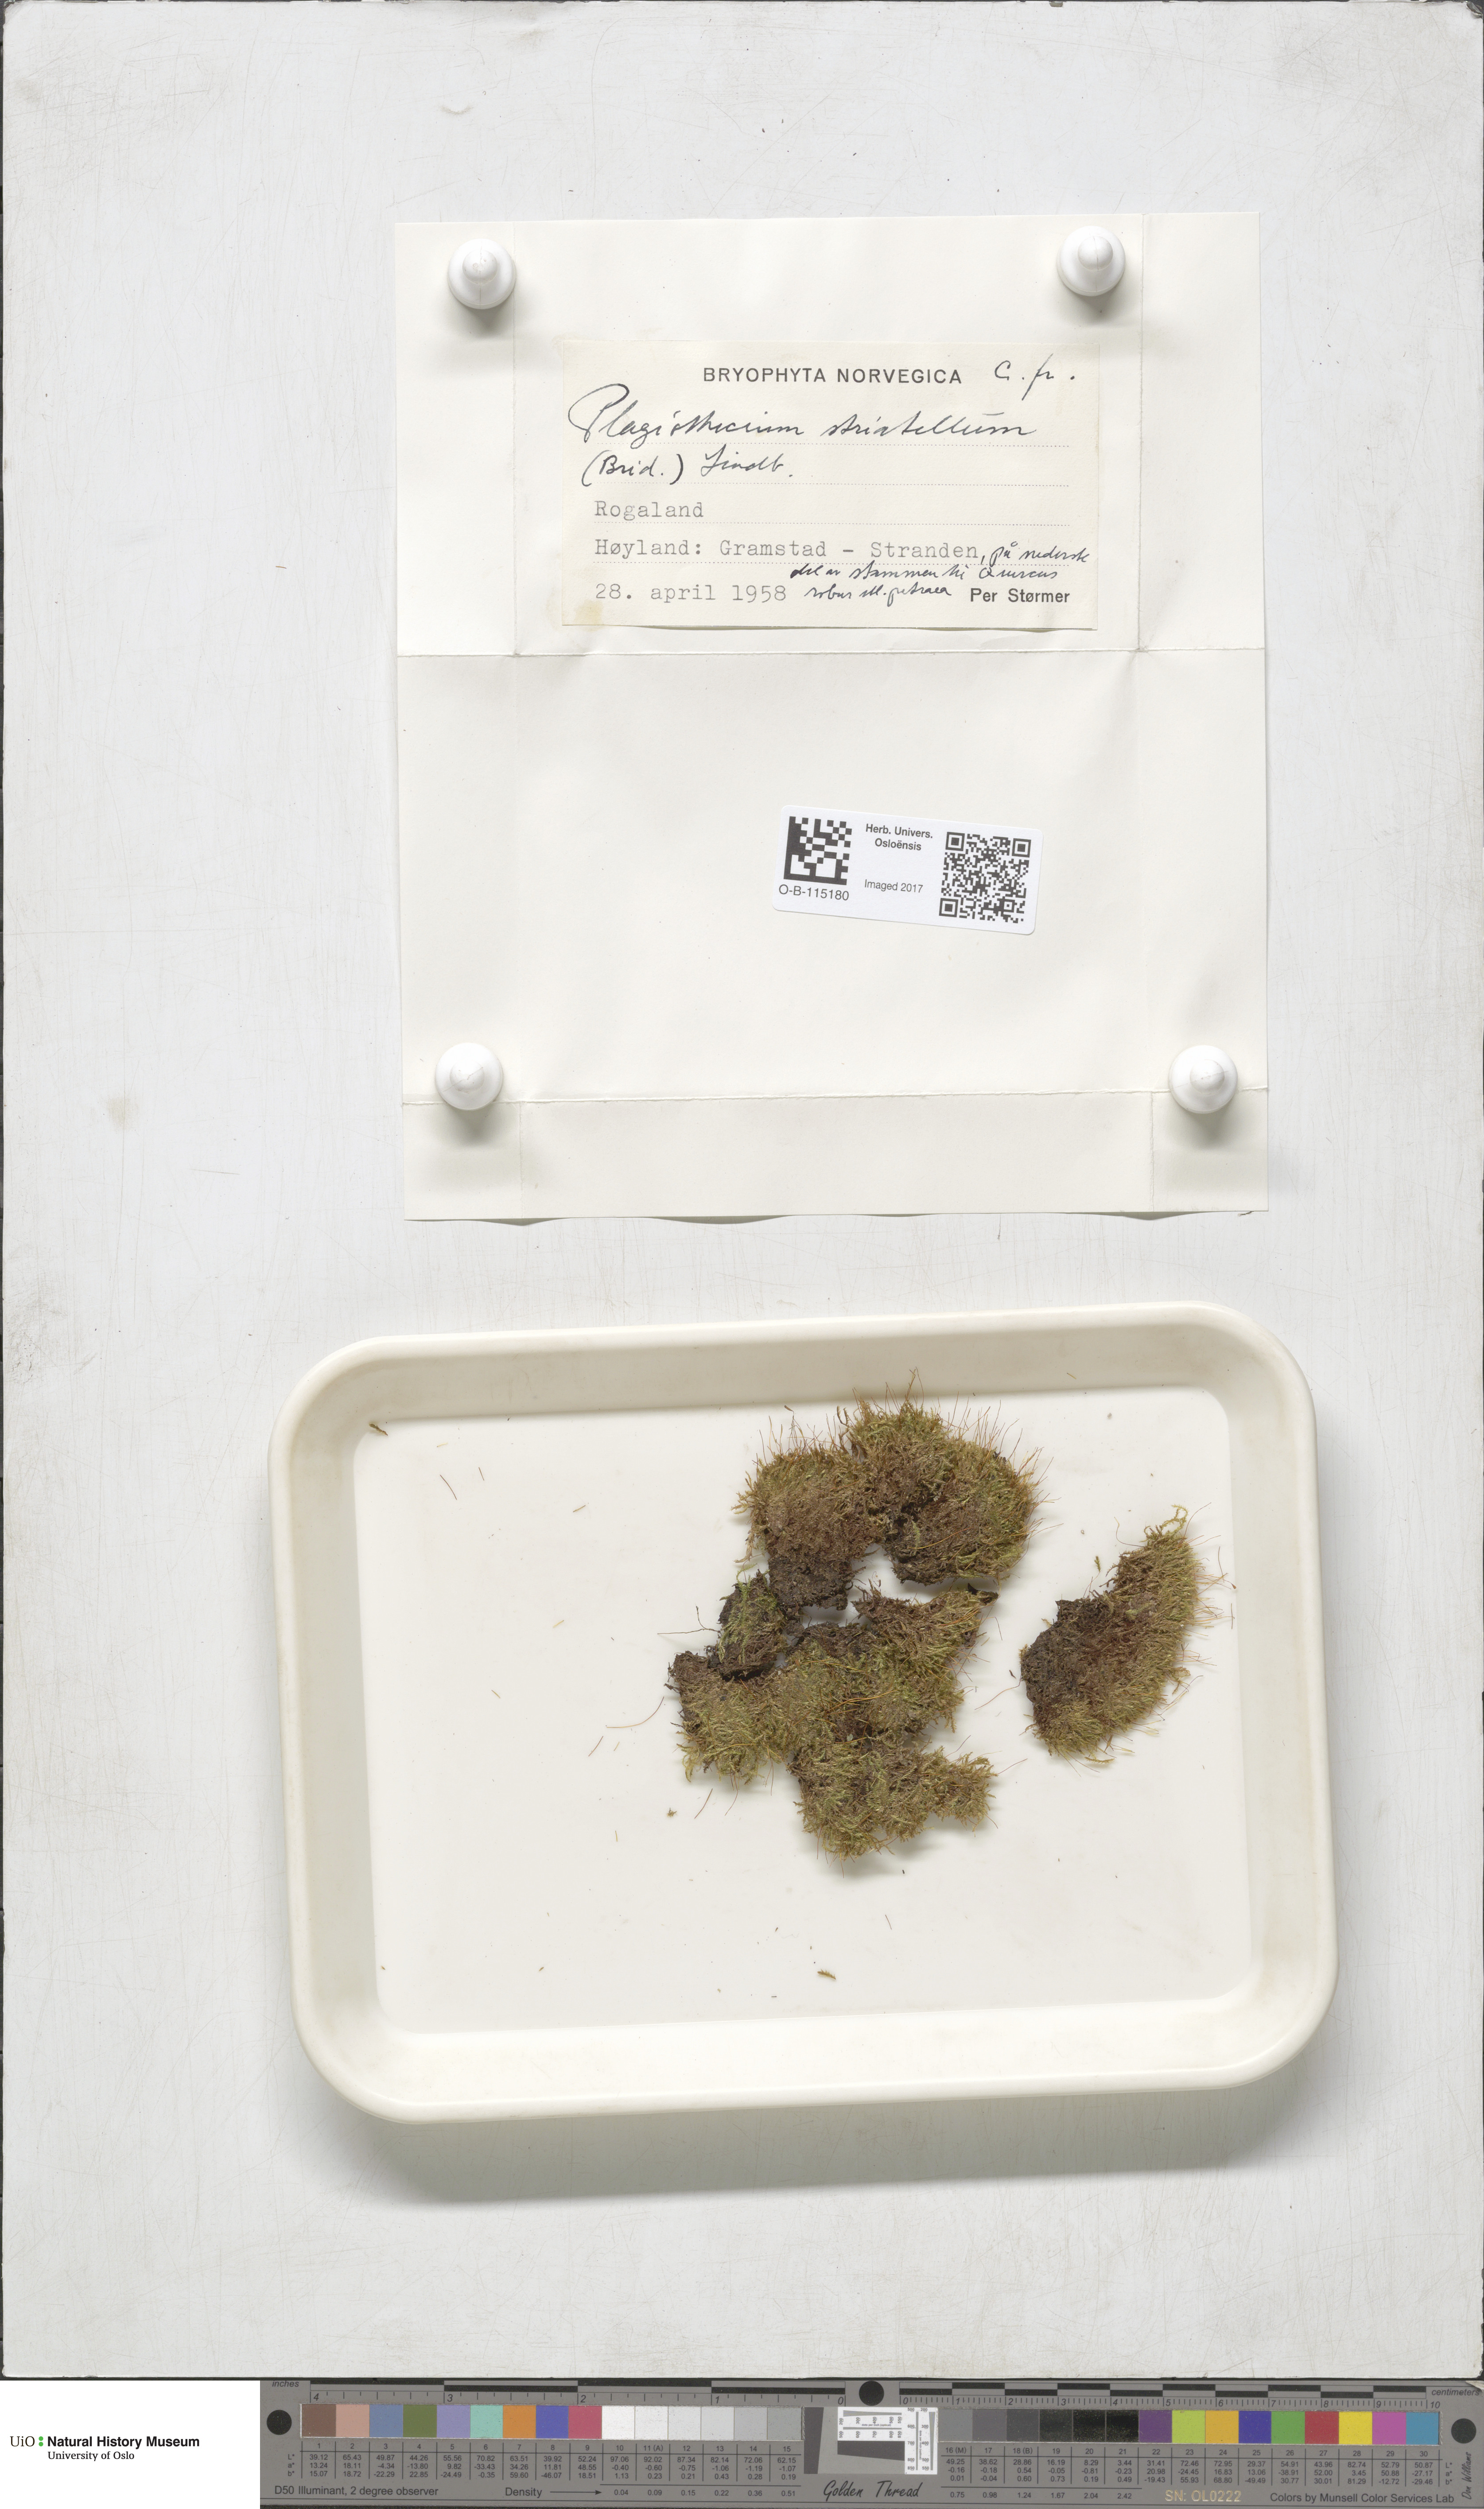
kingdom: Plantae
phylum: Bryophyta
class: Bryopsida
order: Hypnales
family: Plagiotheciaceae
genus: Herzogiella
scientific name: Herzogiella striatella
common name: Muhlenbeck's feather-moss
